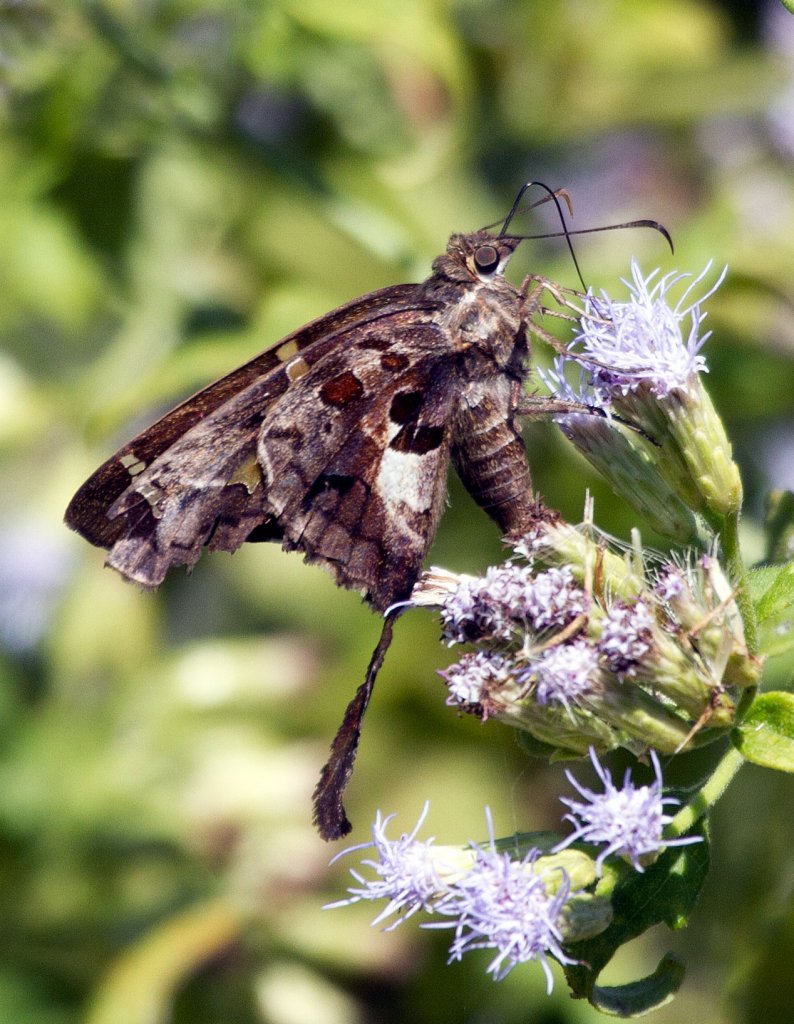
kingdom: Animalia
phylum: Arthropoda
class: Insecta
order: Lepidoptera
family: Hesperiidae
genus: Chioides
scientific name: Chioides zilpa
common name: Zilpa Longtail
